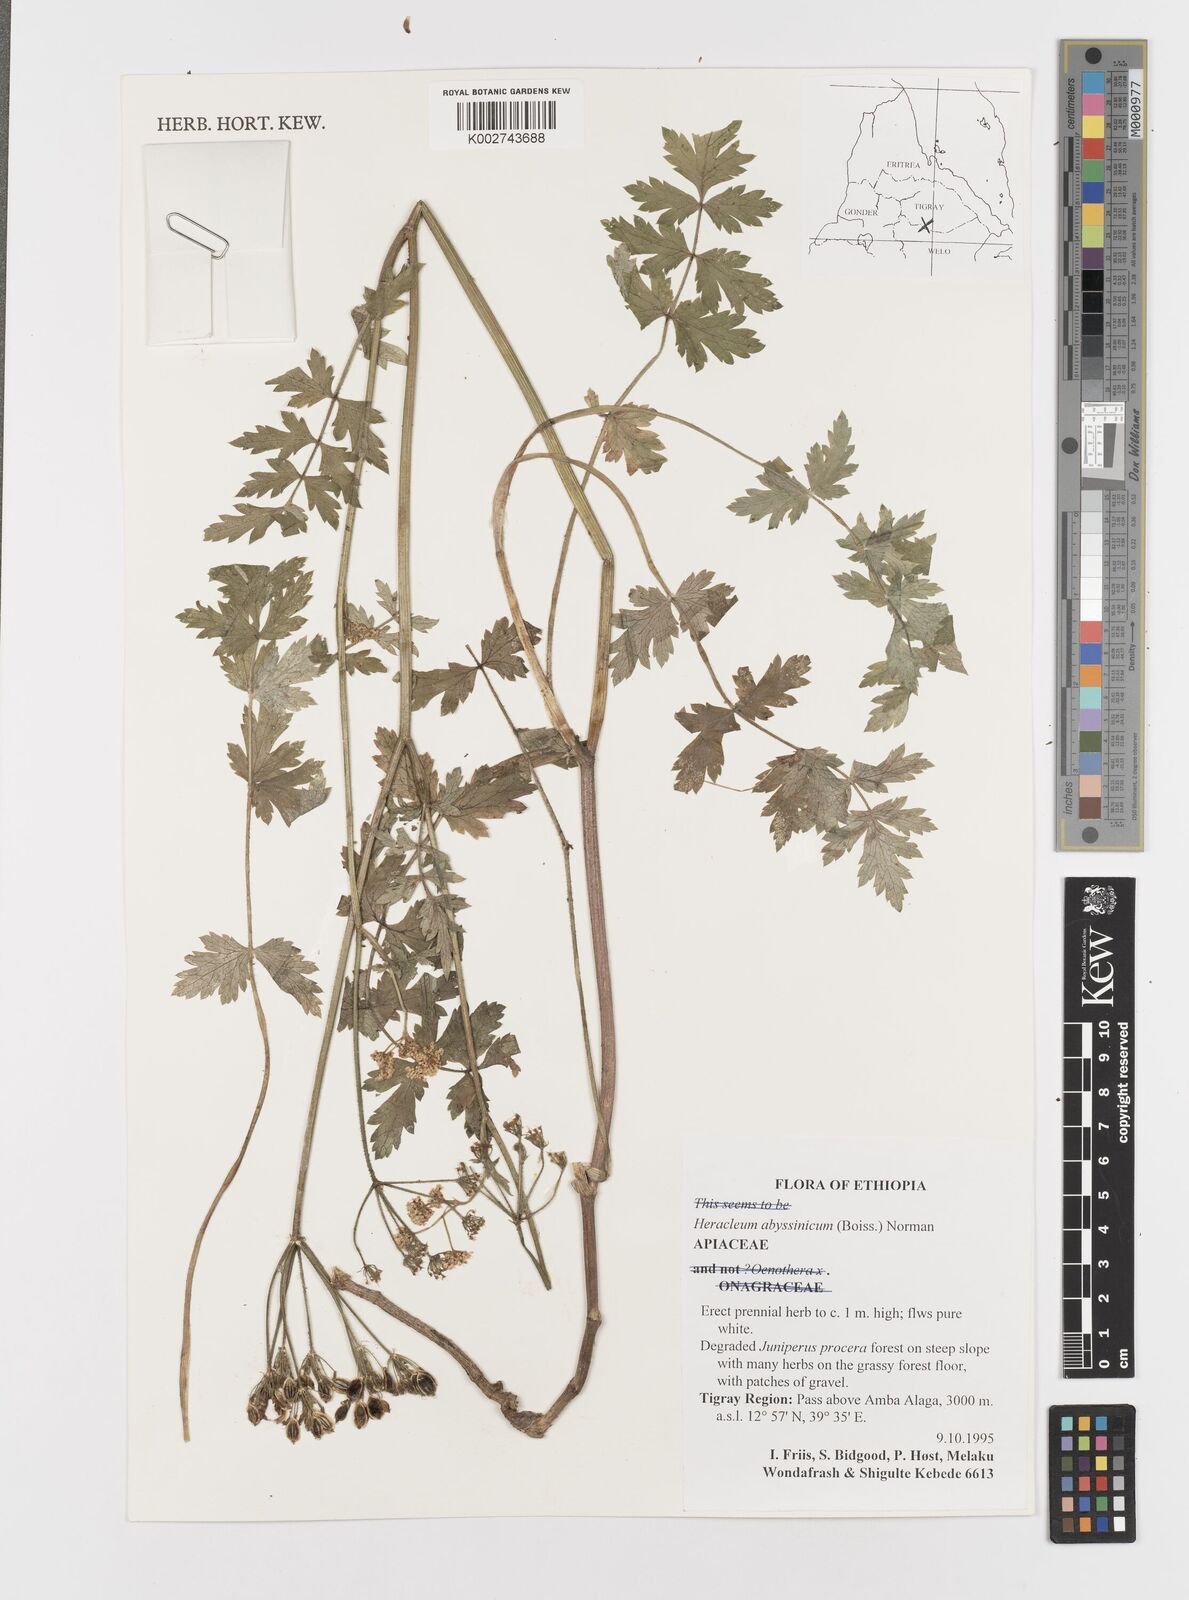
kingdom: Plantae
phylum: Tracheophyta
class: Magnoliopsida
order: Apiales
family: Apiaceae
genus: Heracleum
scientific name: Heracleum abyssinicum
